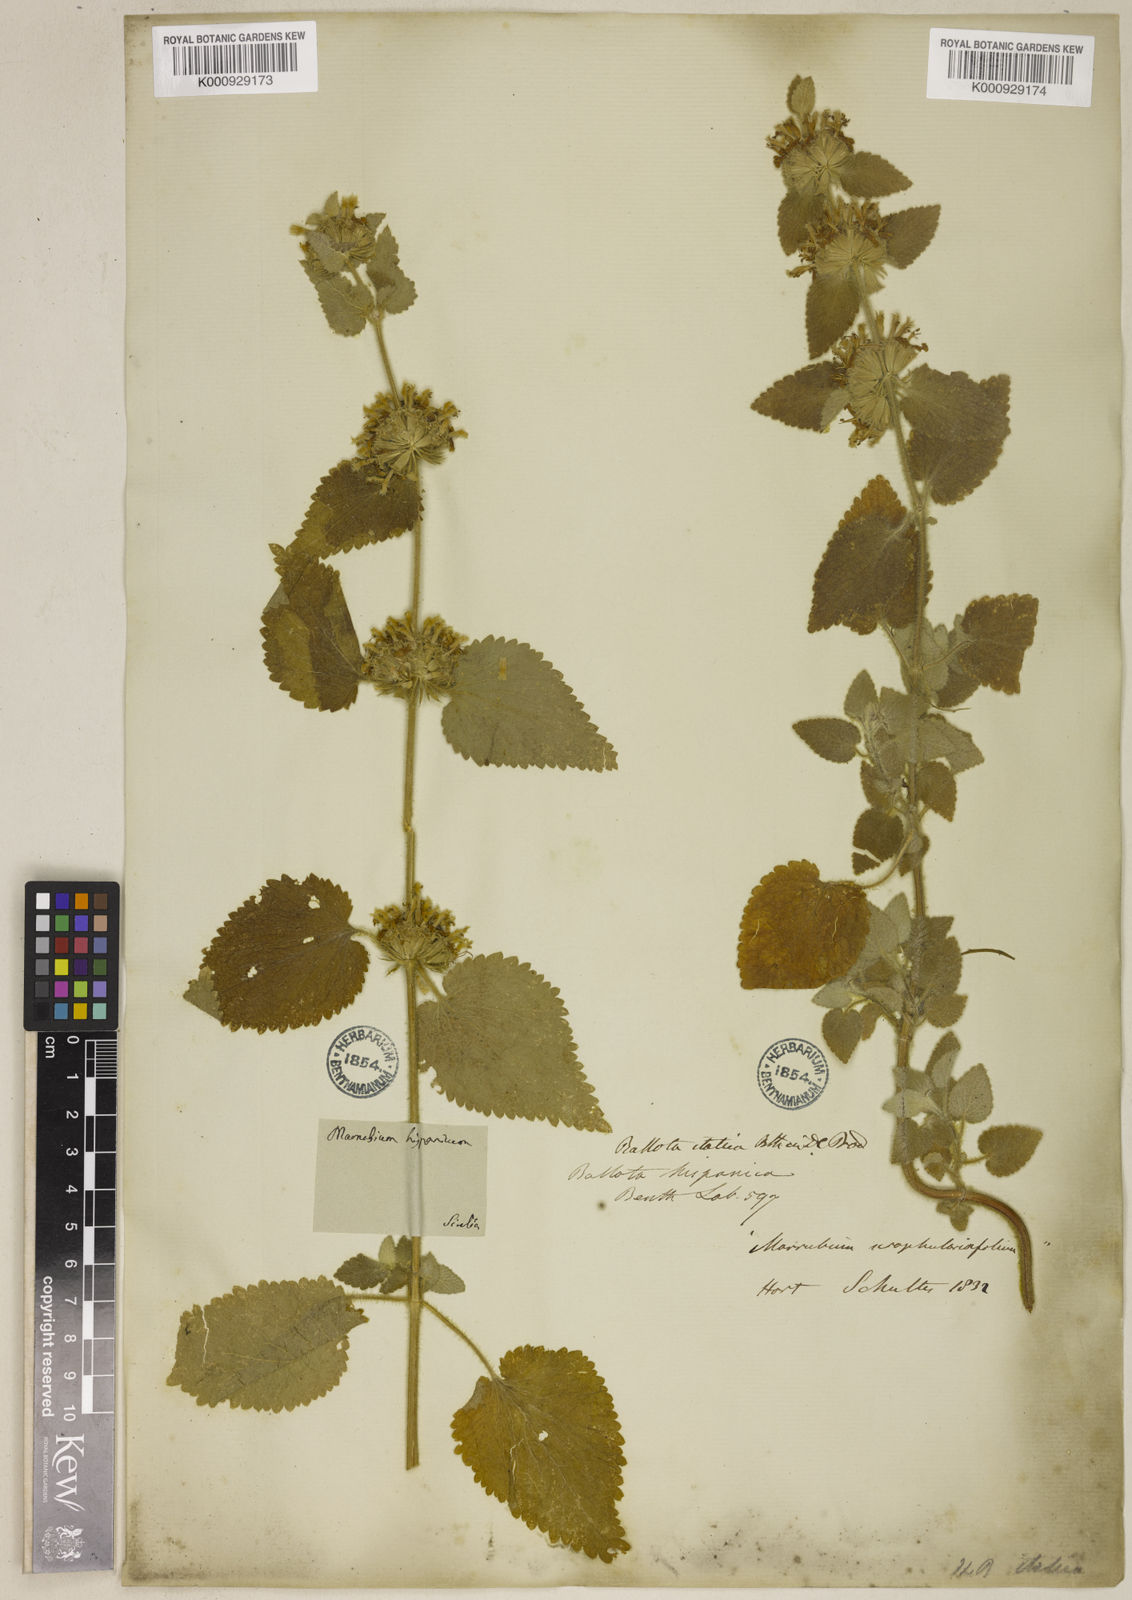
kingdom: Plantae
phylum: Tracheophyta
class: Magnoliopsida
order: Lamiales
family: Lamiaceae
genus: Pseudodictamnus
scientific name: Pseudodictamnus hispanicus
